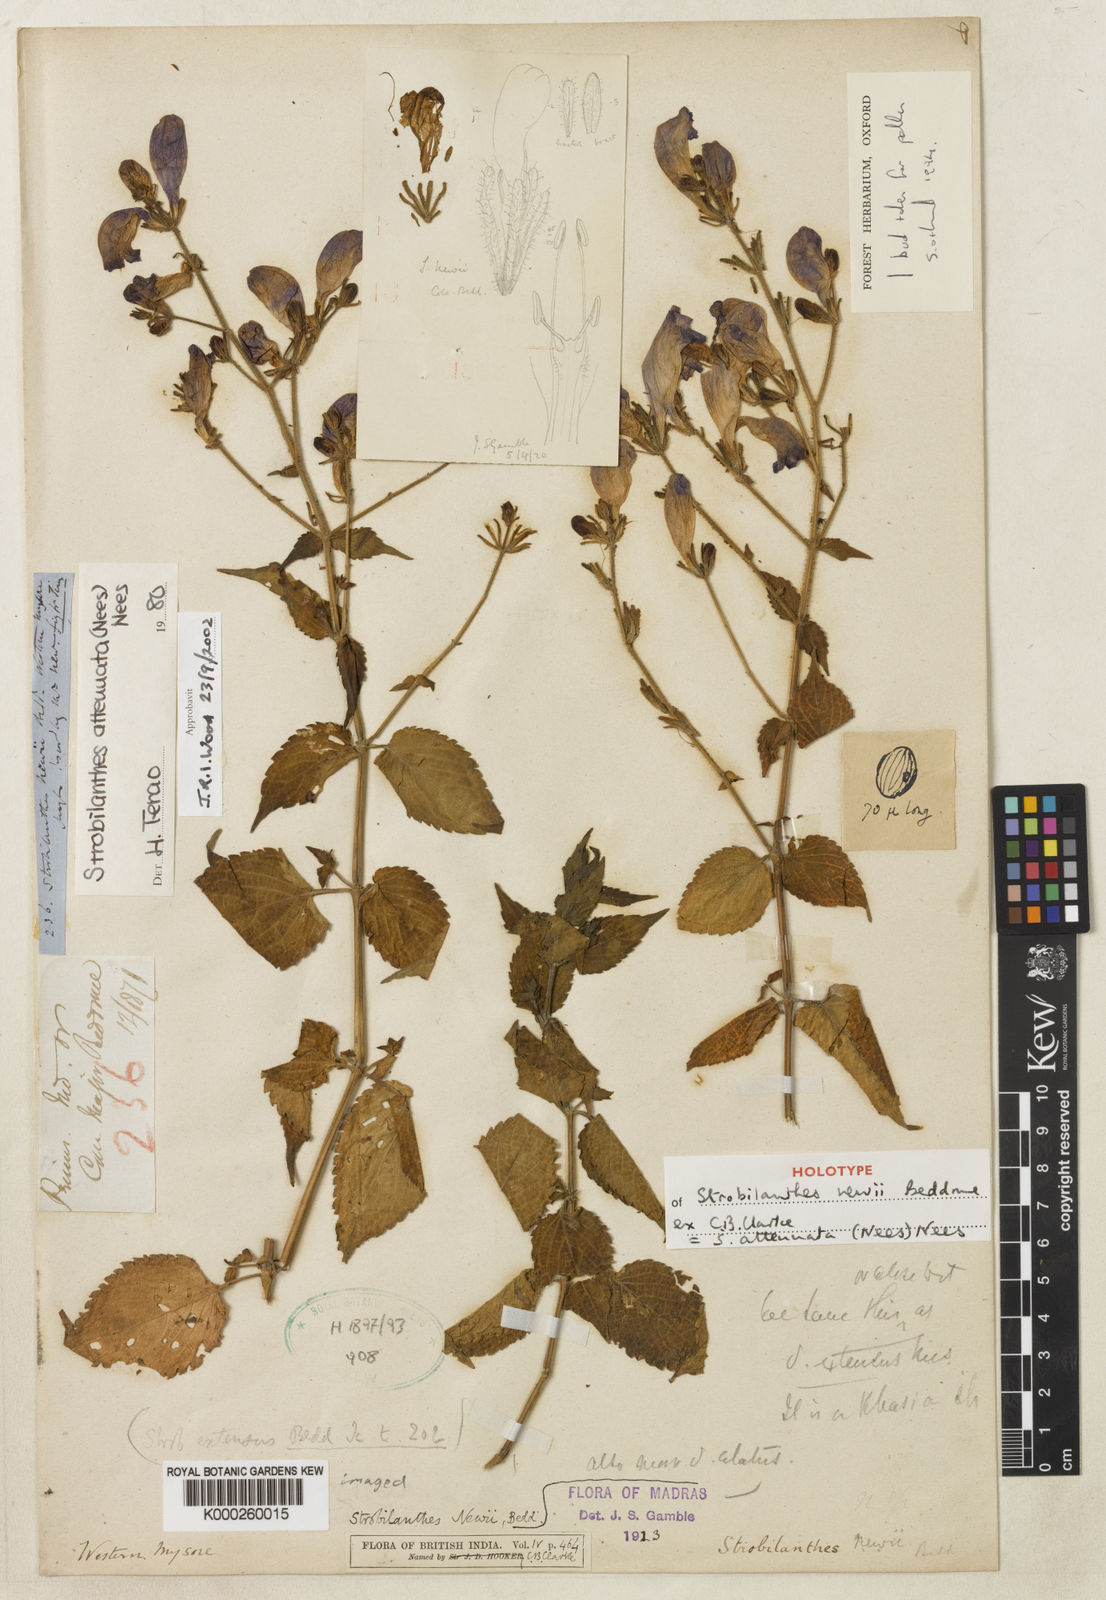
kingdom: Plantae
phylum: Tracheophyta
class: Magnoliopsida
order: Lamiales
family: Acanthaceae
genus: Strobilanthes
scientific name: Strobilanthes attenuata
